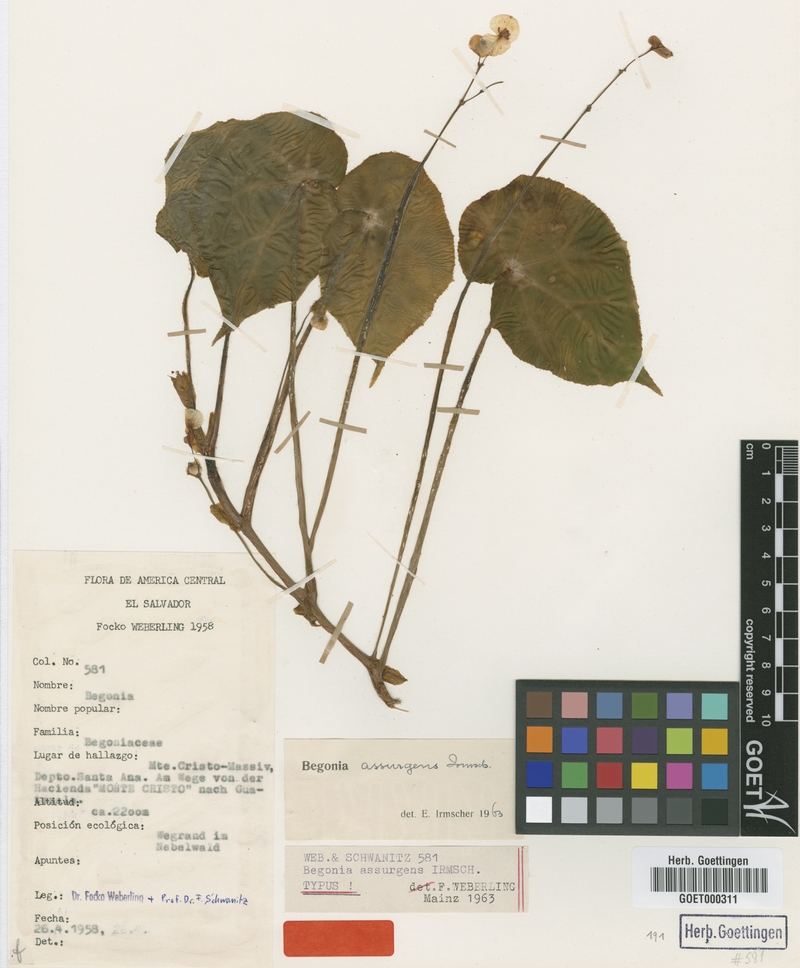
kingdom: Plantae
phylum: Tracheophyta
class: Magnoliopsida
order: Cucurbitales
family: Begoniaceae
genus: Begonia
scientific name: Begonia assurgens
